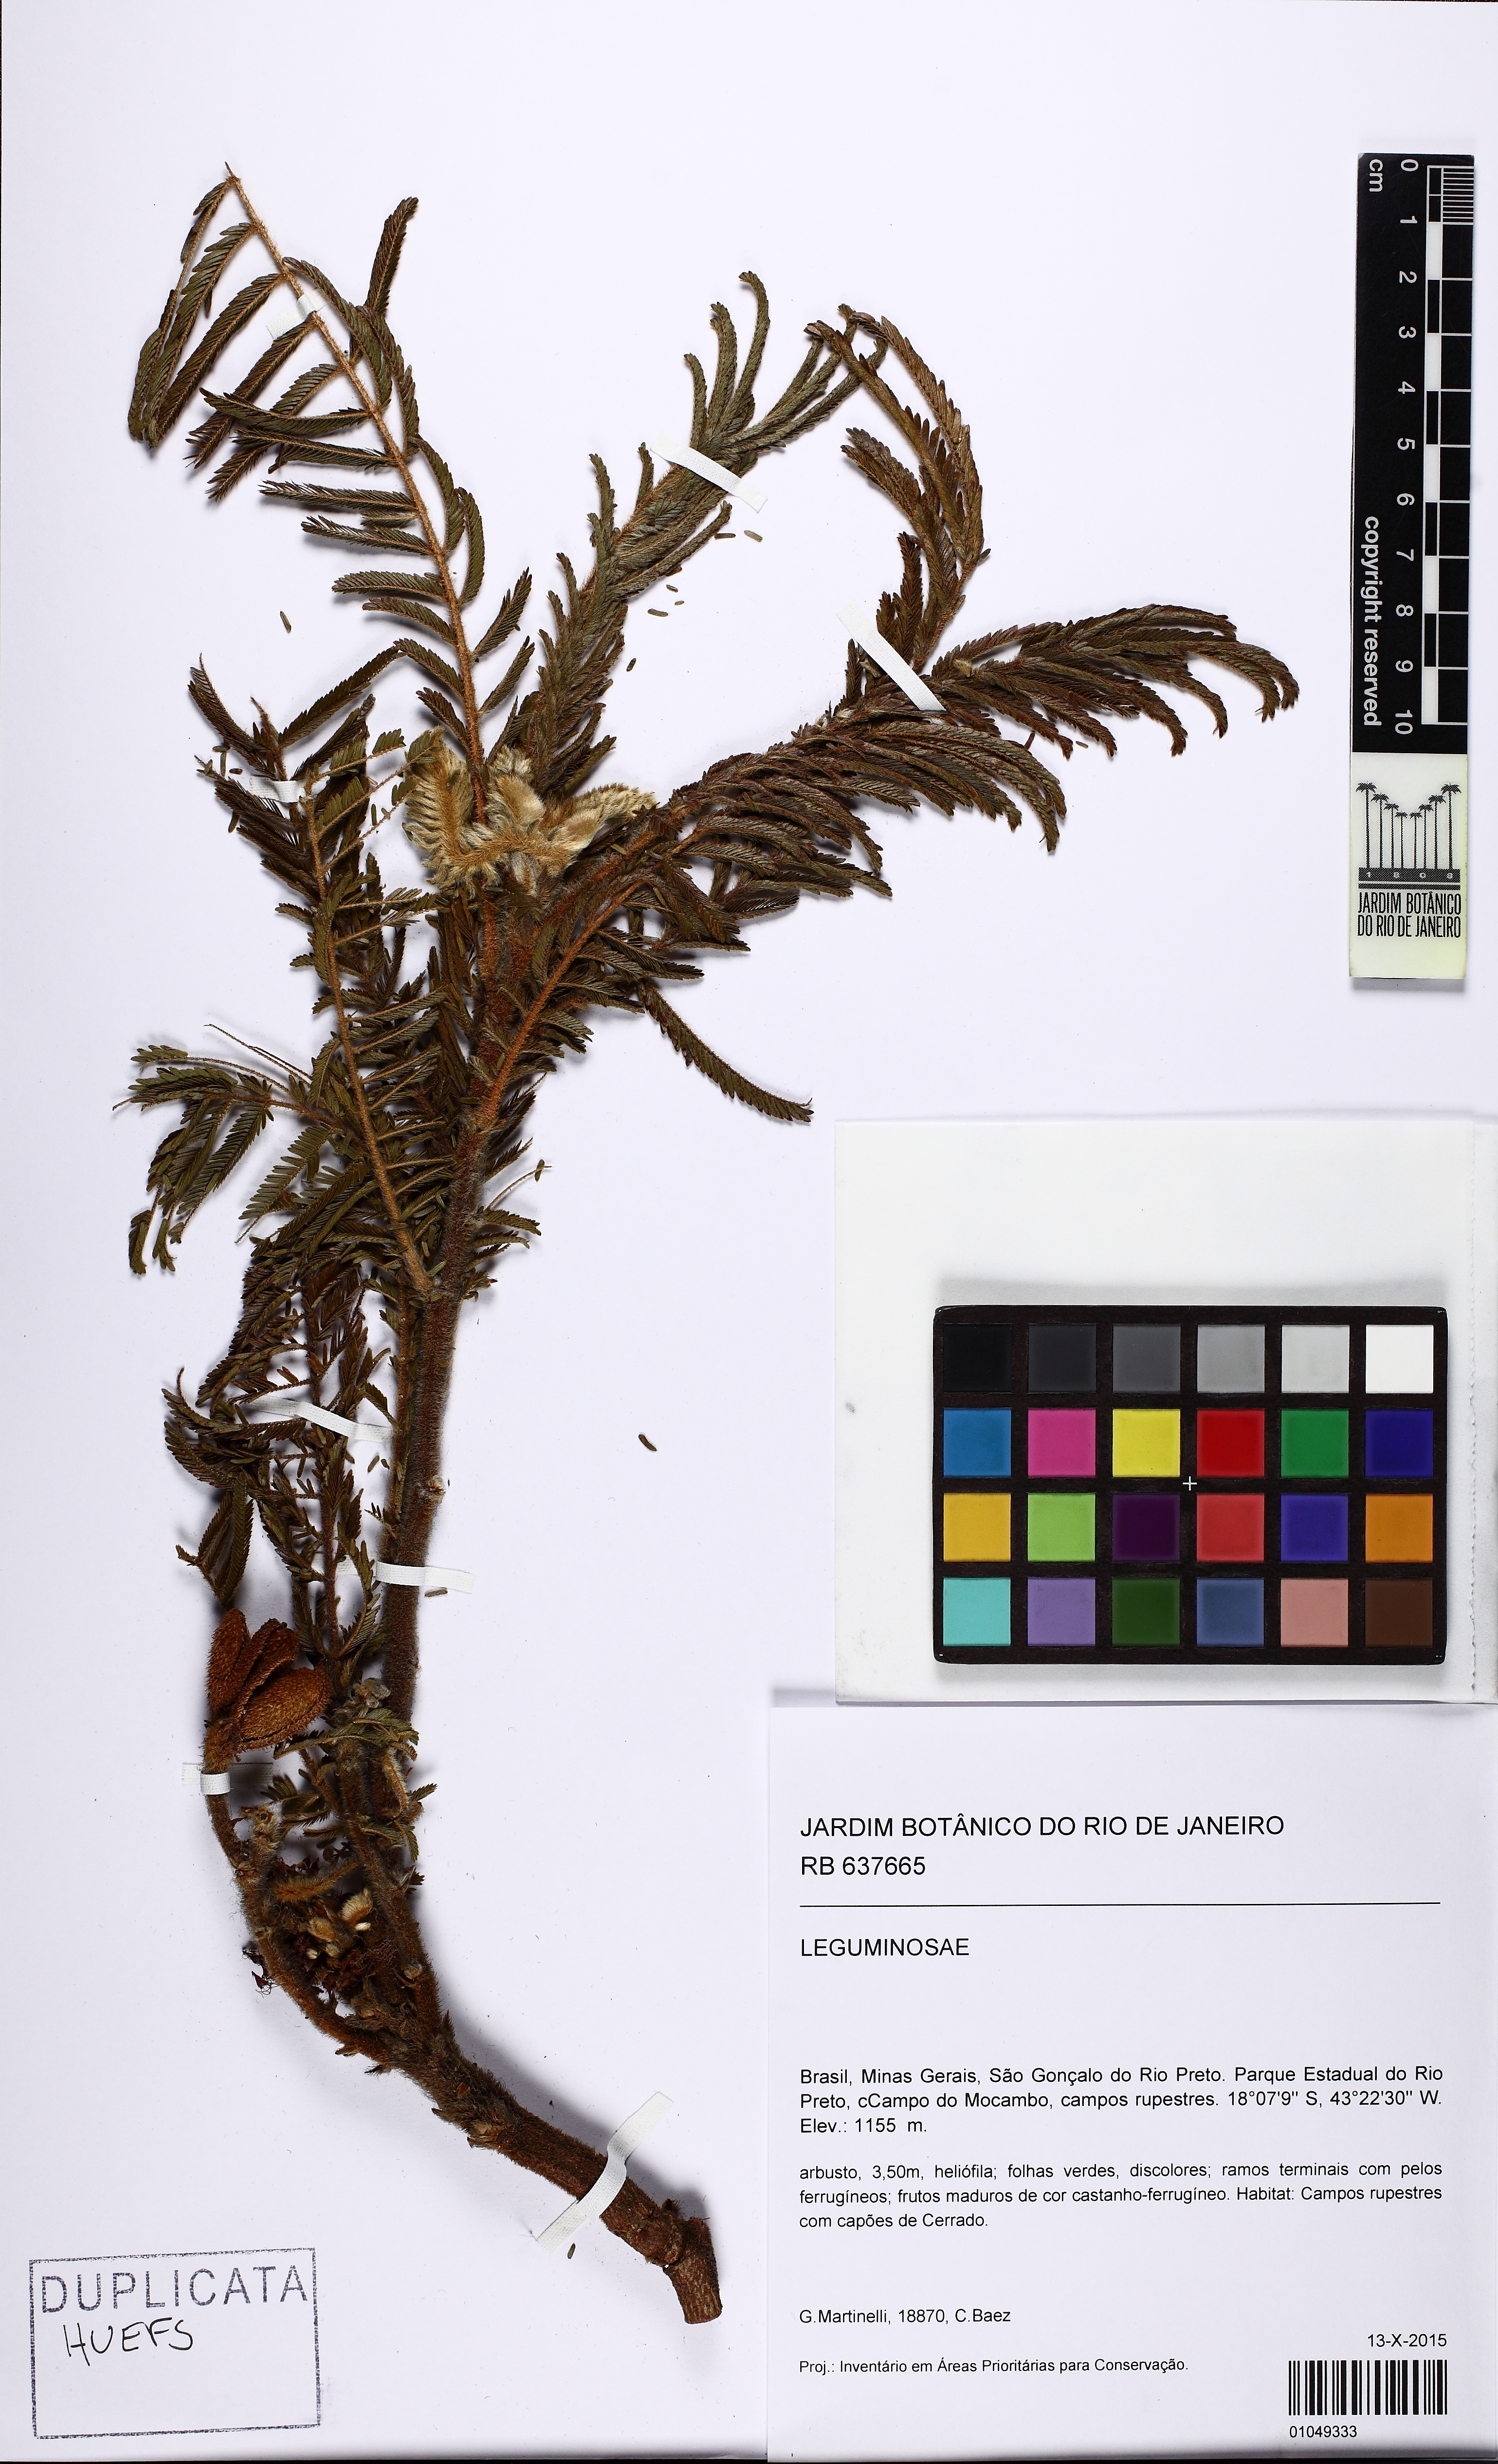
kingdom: Plantae
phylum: Tracheophyta
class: Magnoliopsida
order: Fabales
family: Fabaceae
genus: Mimosa
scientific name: Mimosa stylosa
